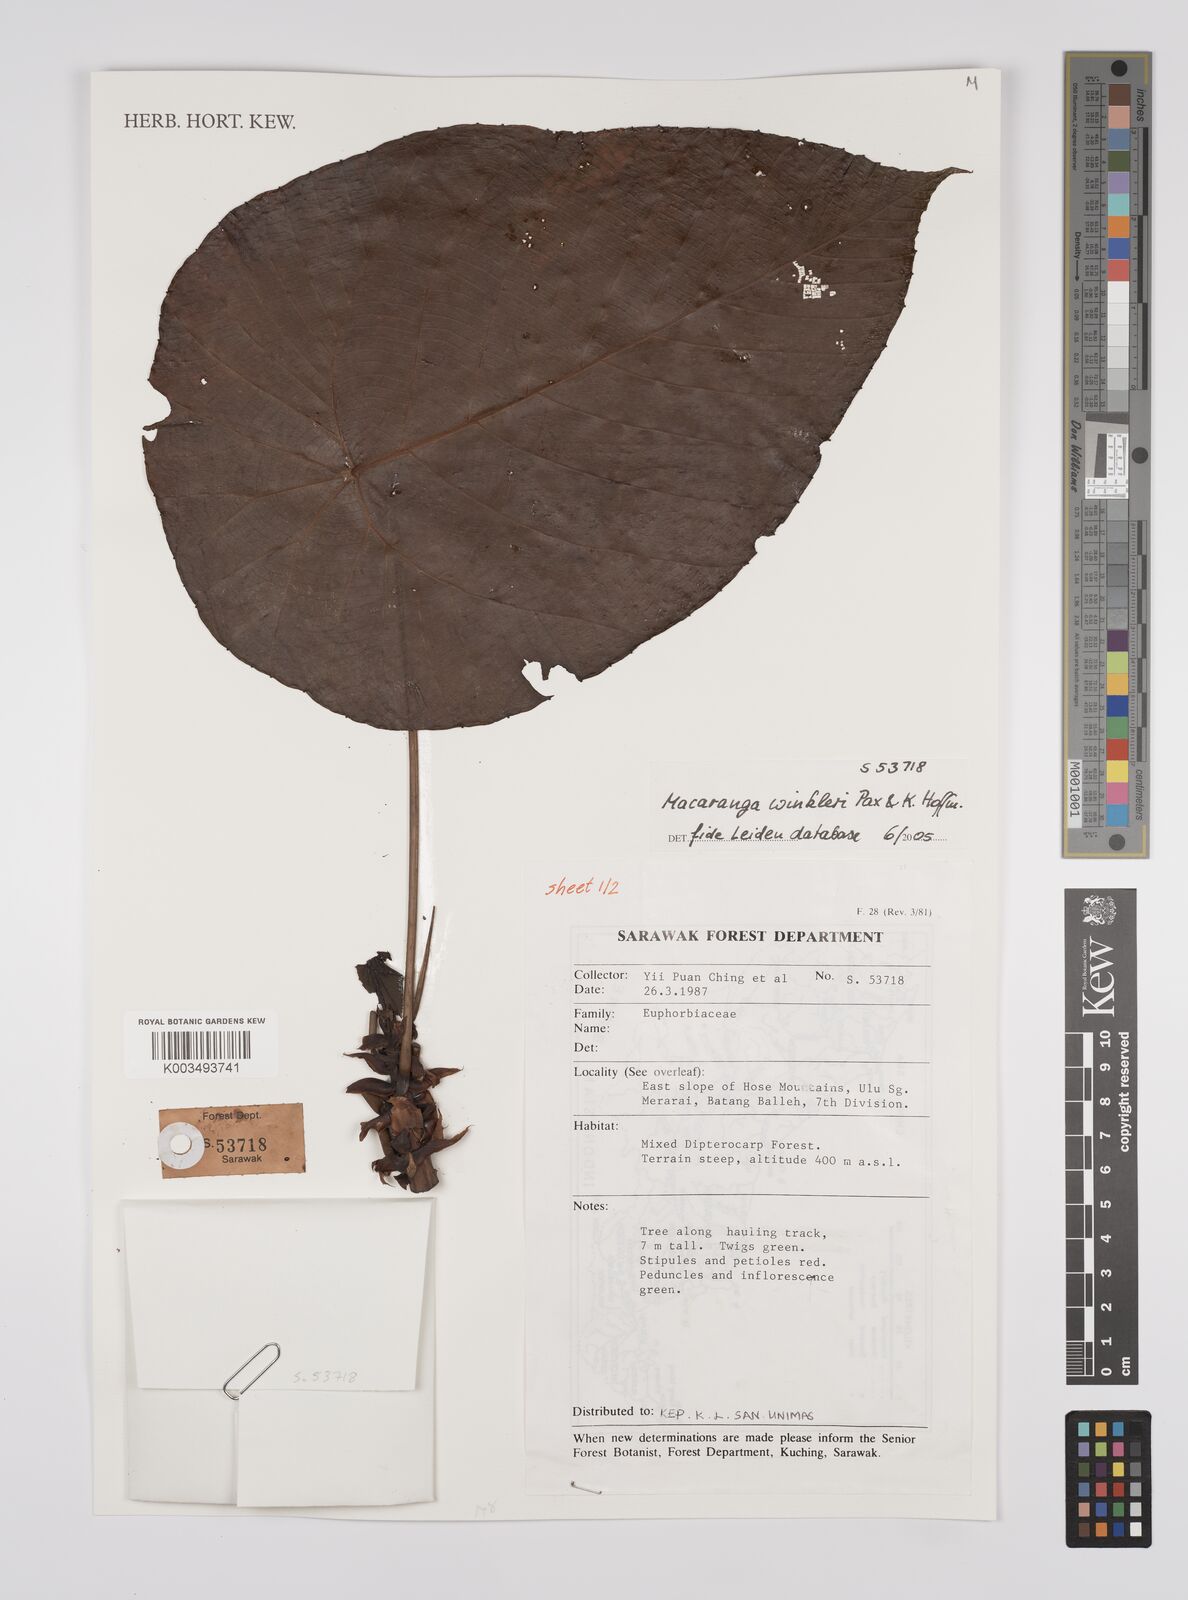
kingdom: Plantae
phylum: Tracheophyta
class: Magnoliopsida
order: Malpighiales
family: Euphorbiaceae
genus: Macaranga
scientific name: Macaranga winkleri
